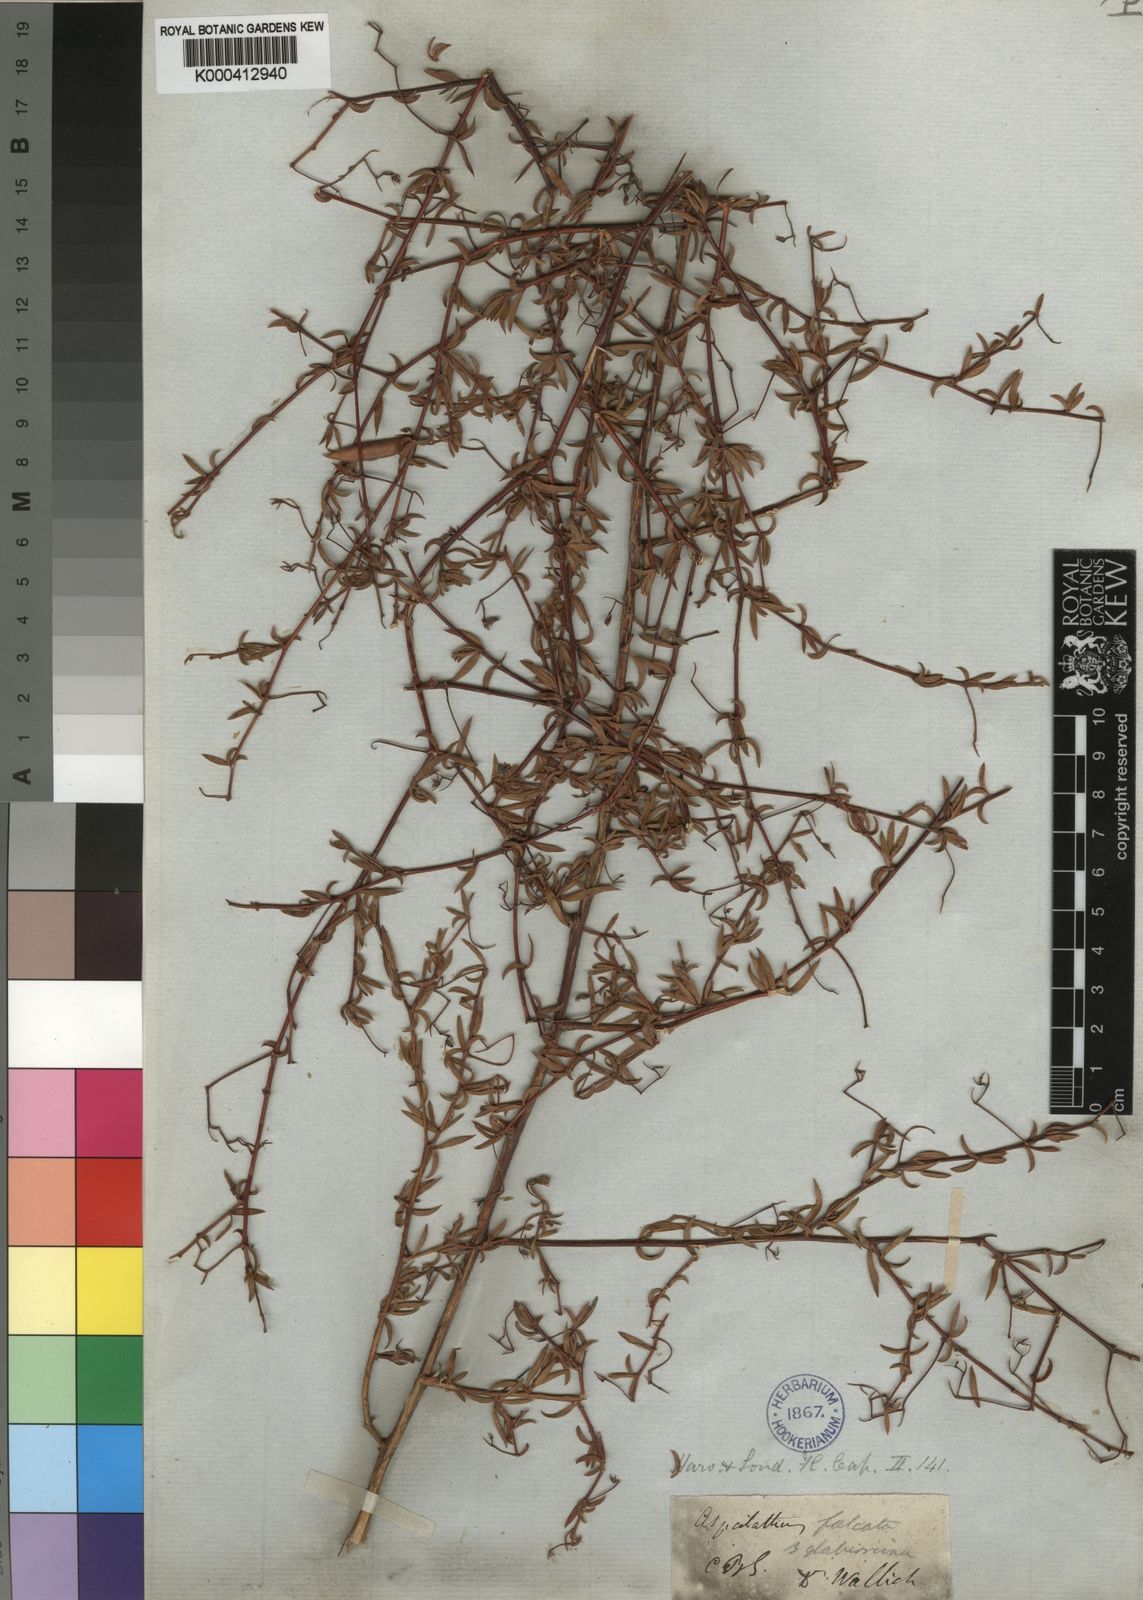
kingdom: Plantae
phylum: Tracheophyta
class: Magnoliopsida
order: Fabales
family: Fabaceae
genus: Aspalathus
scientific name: Aspalathus lanata
